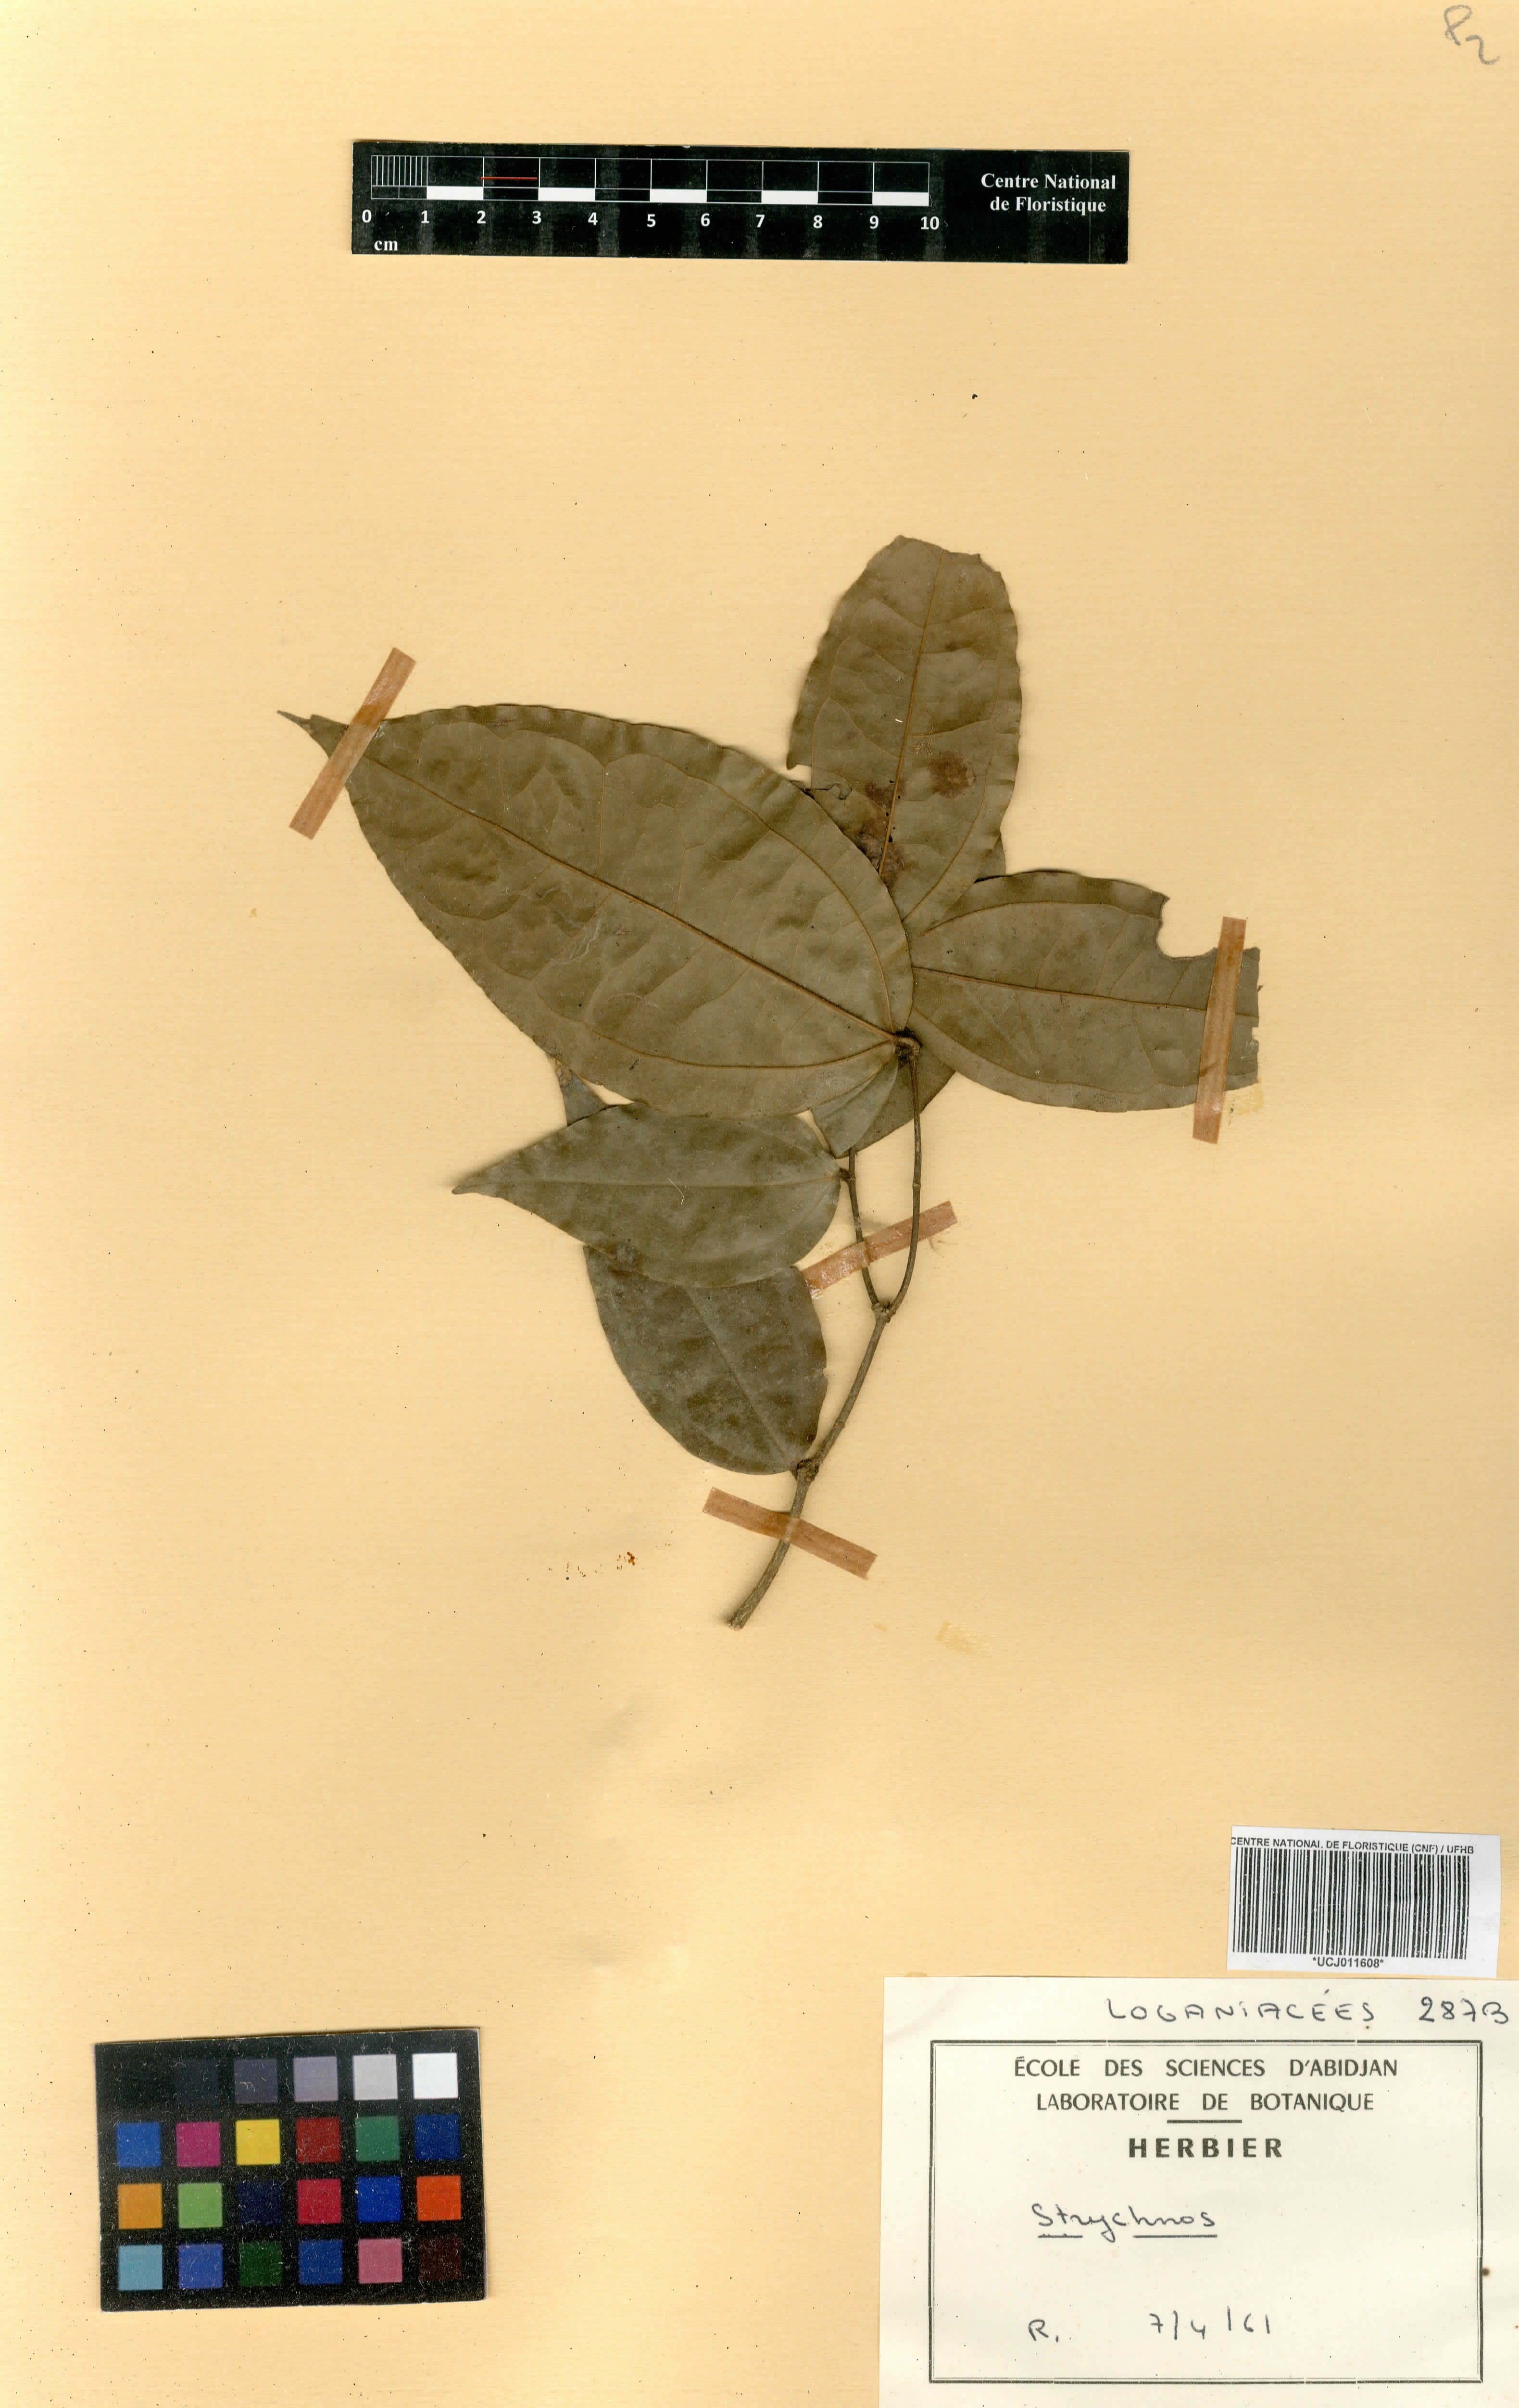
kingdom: Plantae
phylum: Tracheophyta
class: Magnoliopsida
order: Gentianales
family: Loganiaceae
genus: Strychnos
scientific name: Strychnos
